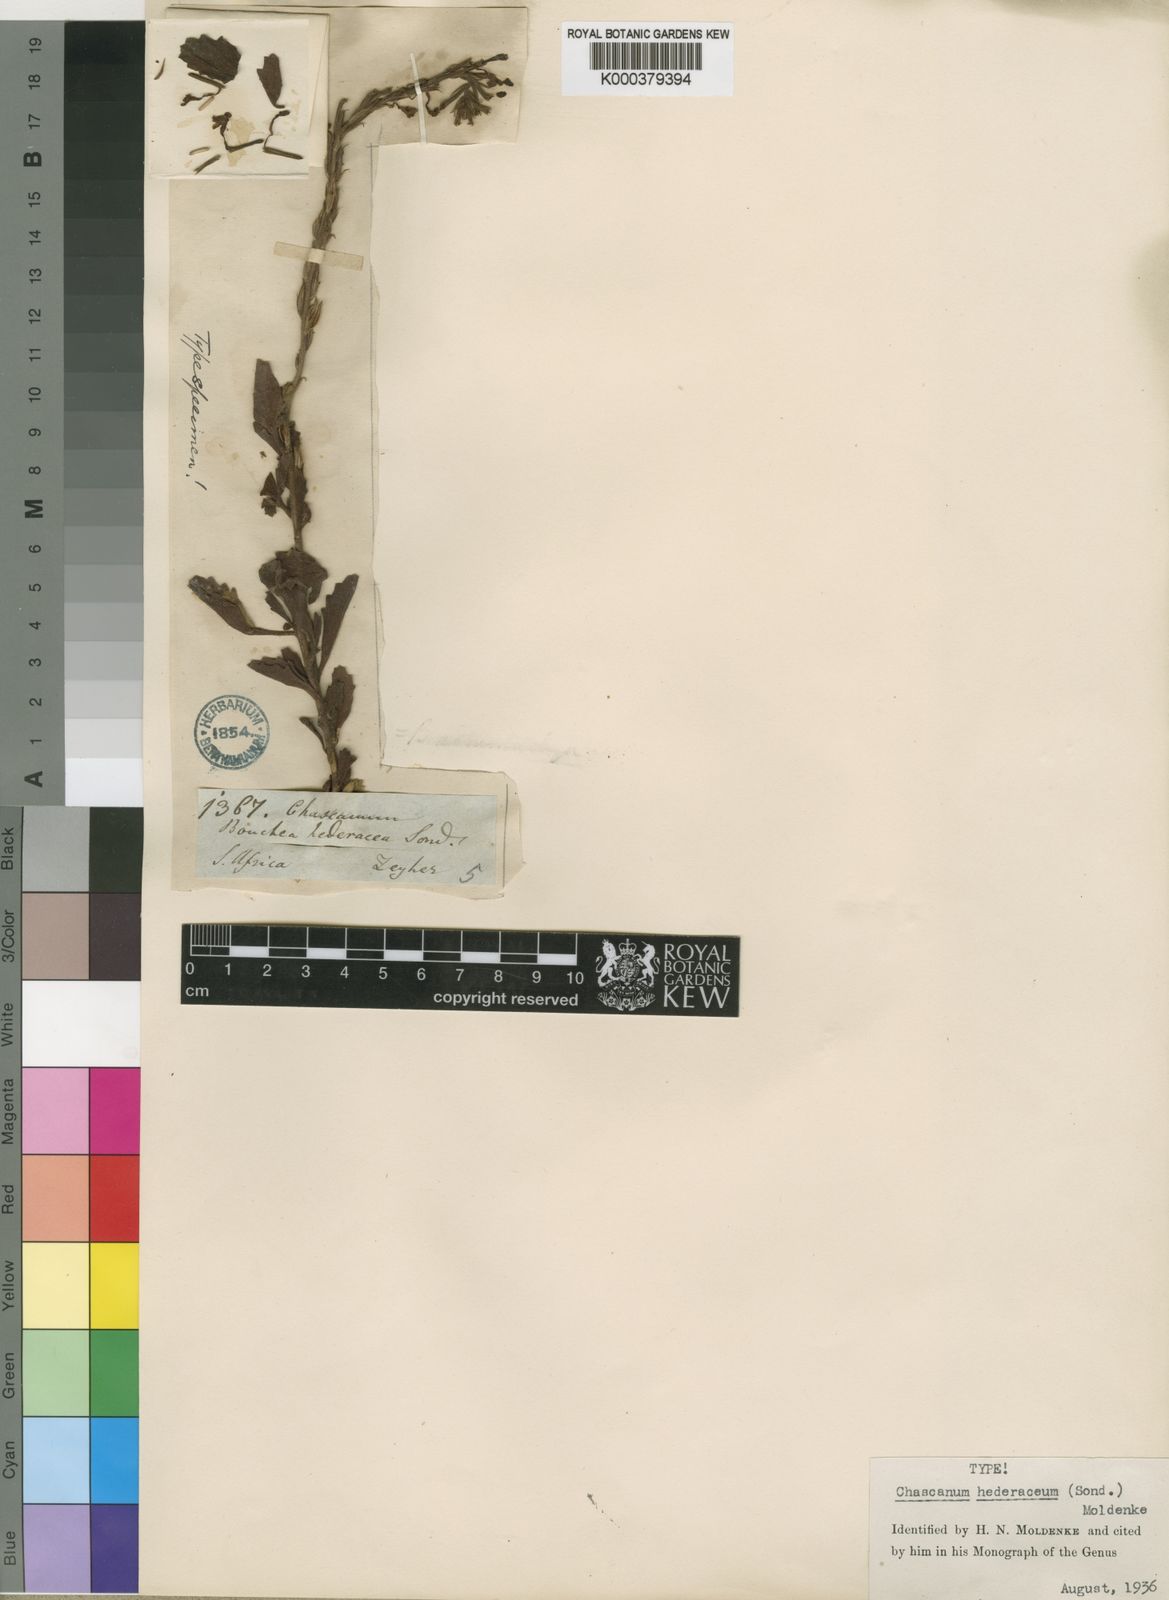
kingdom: Plantae
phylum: Tracheophyta
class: Magnoliopsida
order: Lamiales
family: Verbenaceae
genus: Chascanum
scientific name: Chascanum hederaceum
